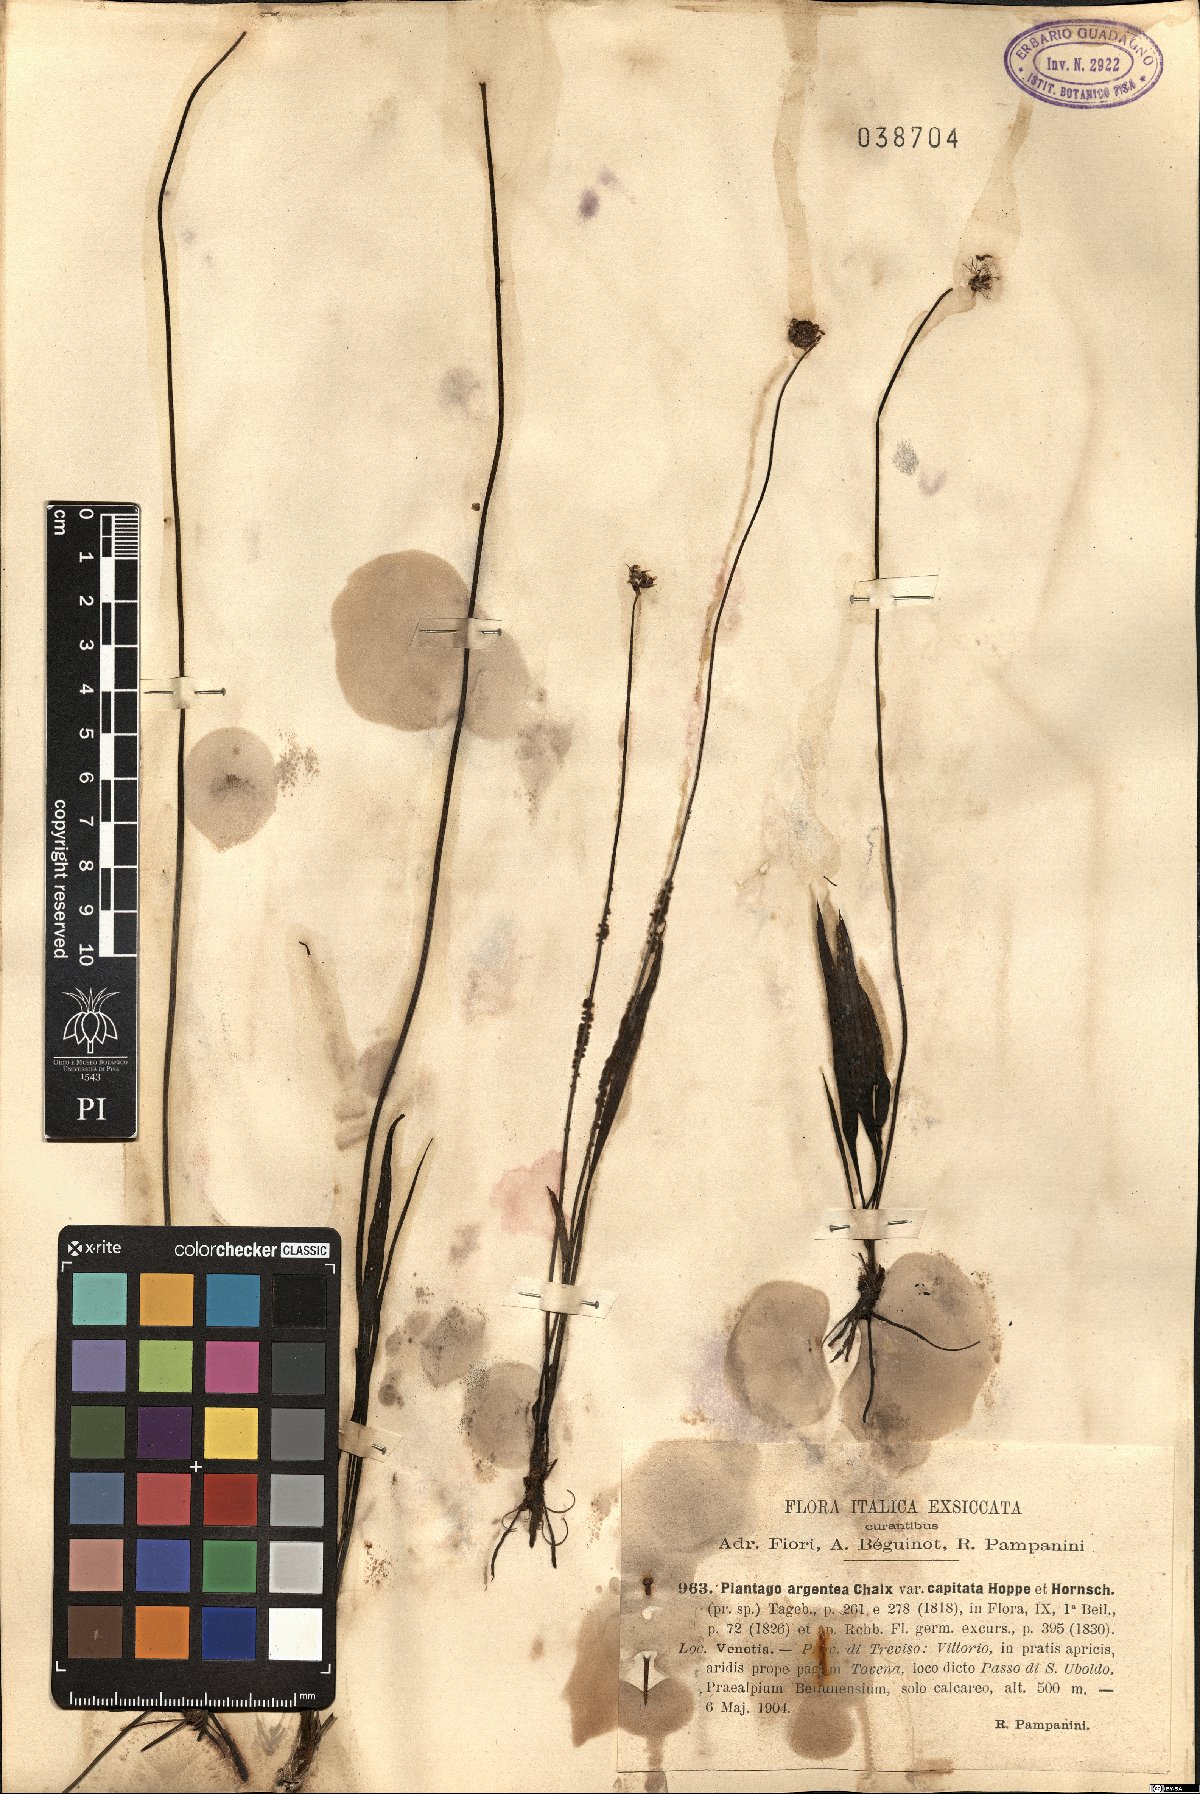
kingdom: Plantae
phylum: Tracheophyta
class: Magnoliopsida
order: Lamiales
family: Plantaginaceae
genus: Plantago
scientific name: Plantago argentea
